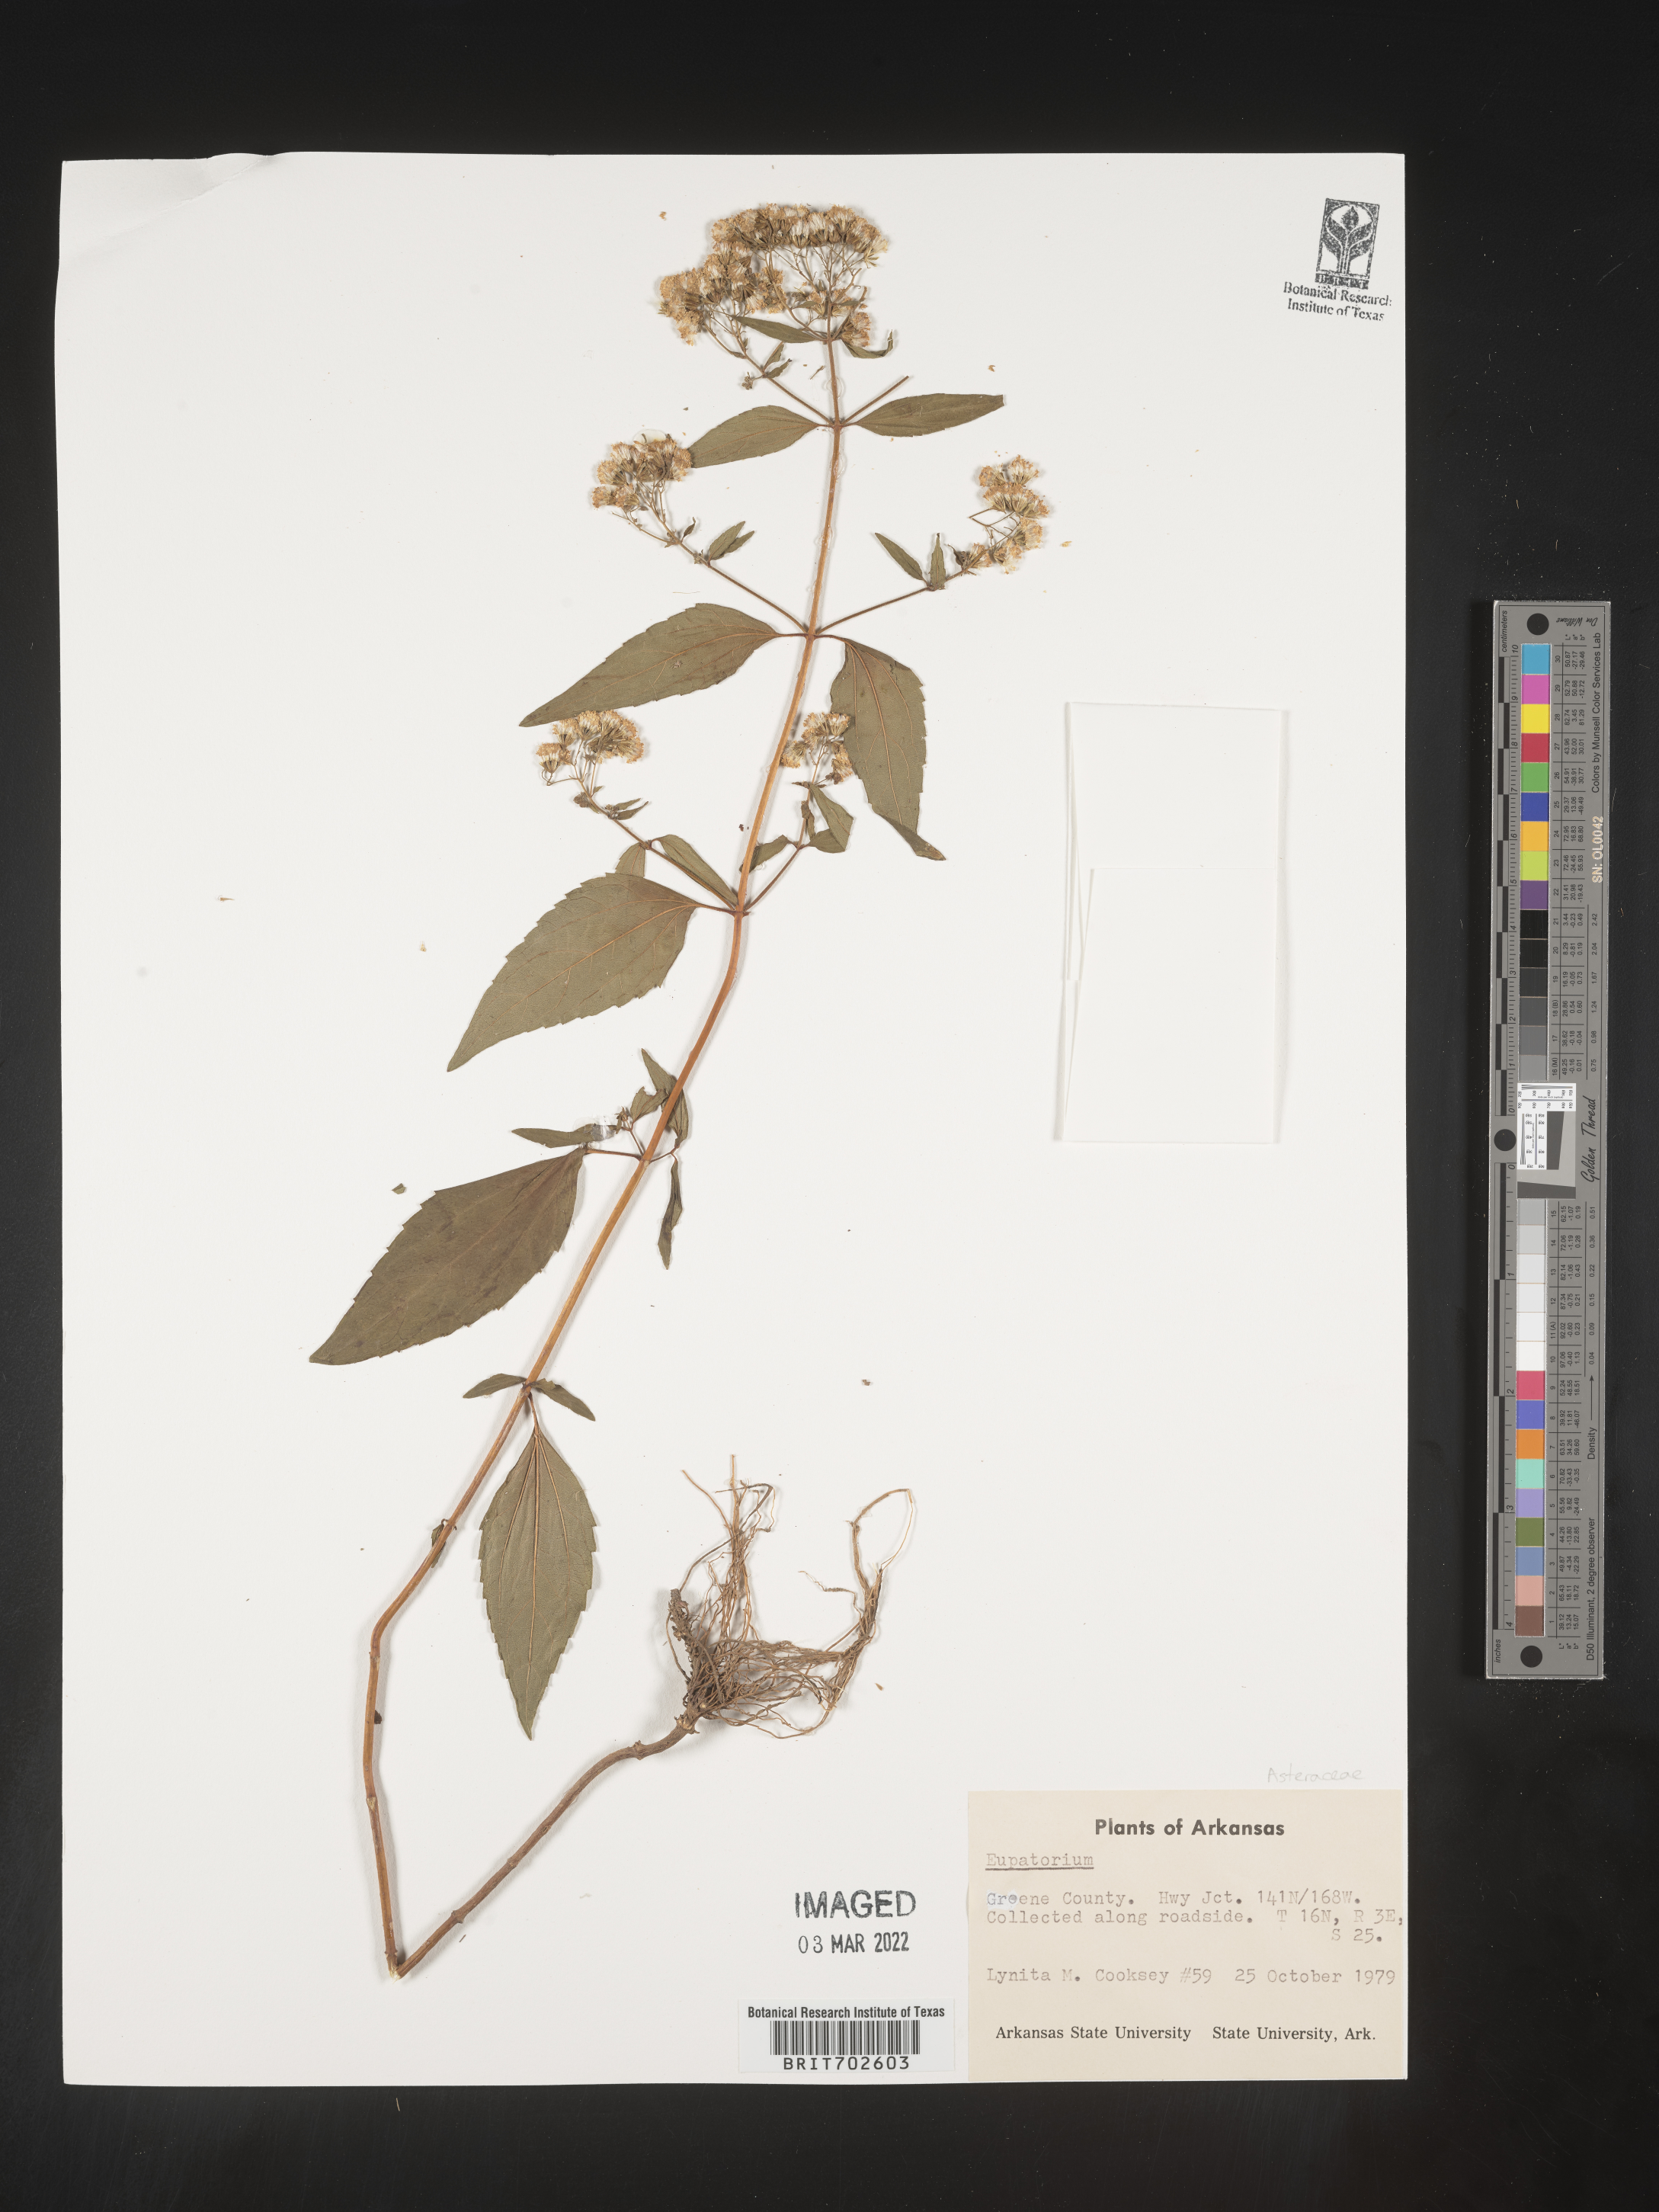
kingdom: Plantae
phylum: Tracheophyta
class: Magnoliopsida
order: Asterales
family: Asteraceae
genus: Eupatorium
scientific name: Eupatorium
